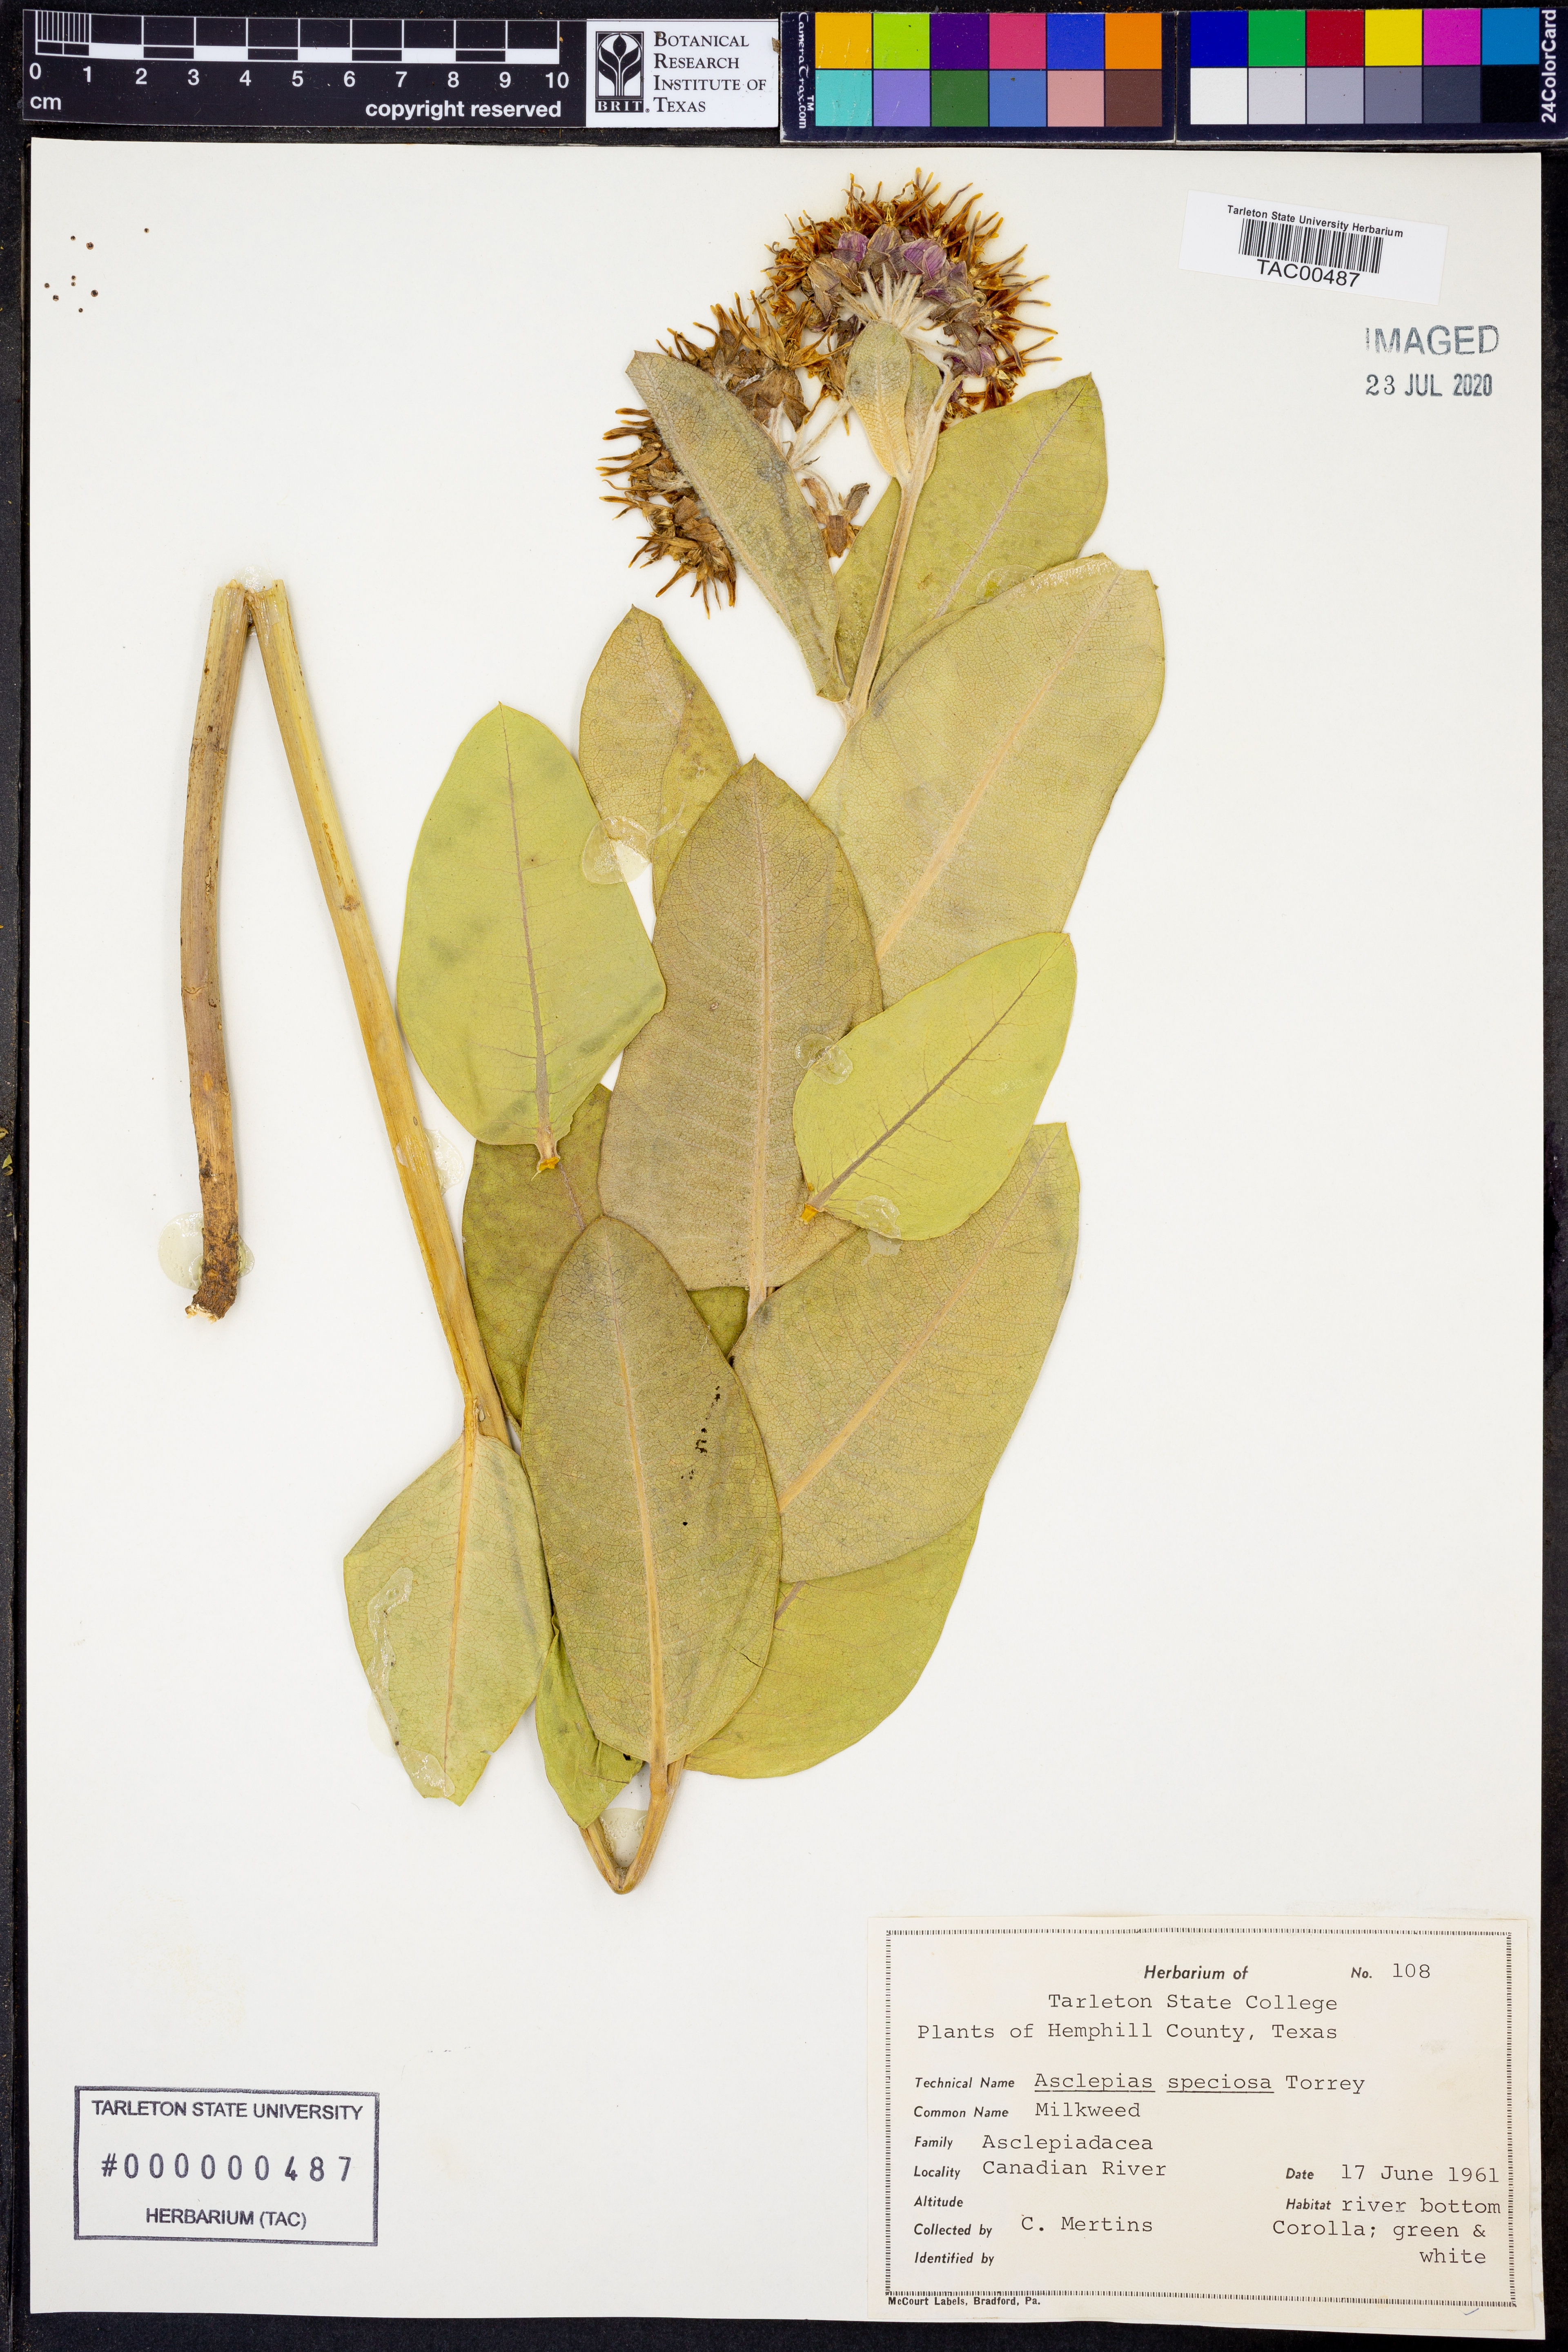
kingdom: Plantae
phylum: Tracheophyta
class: Magnoliopsida
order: Gentianales
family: Apocynaceae
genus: Asclepias
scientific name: Asclepias speciosa
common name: Showy milkweed
